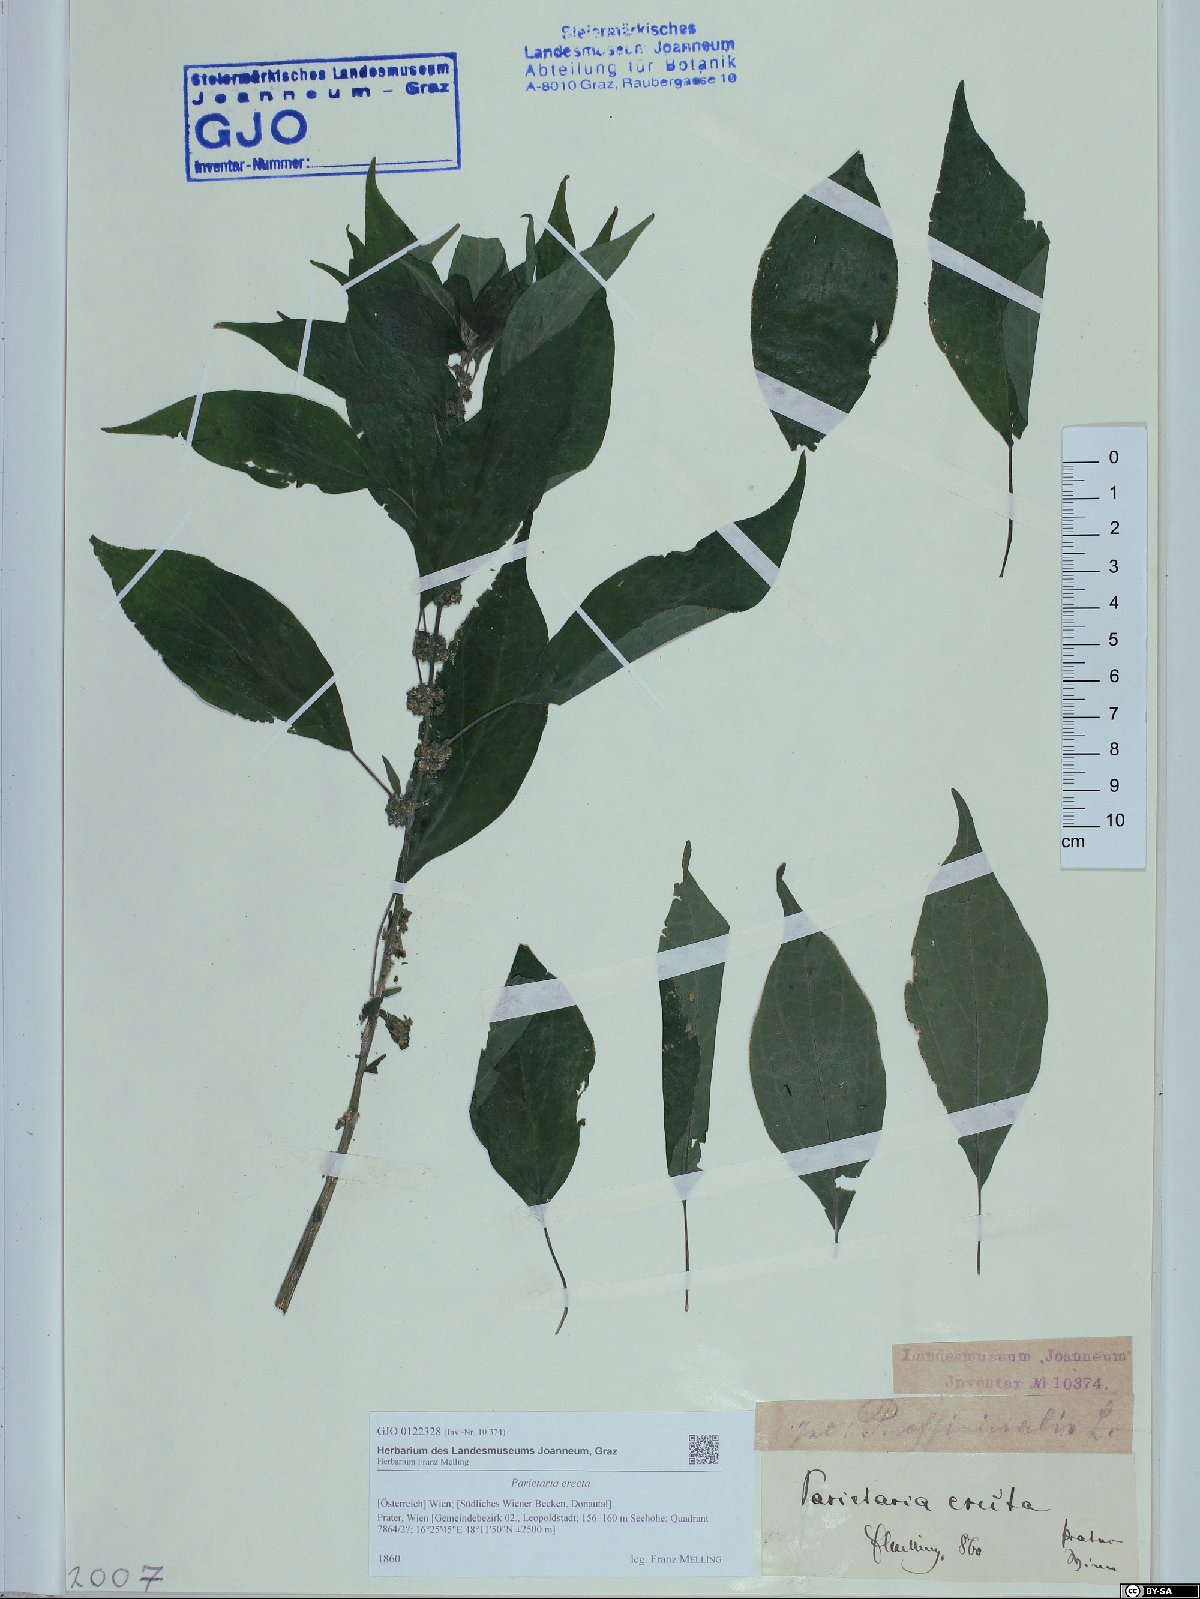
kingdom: Plantae
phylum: Tracheophyta
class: Magnoliopsida
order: Rosales
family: Urticaceae
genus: Parietaria
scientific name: Parietaria officinalis
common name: Eastern pellitory-of-the-wall
